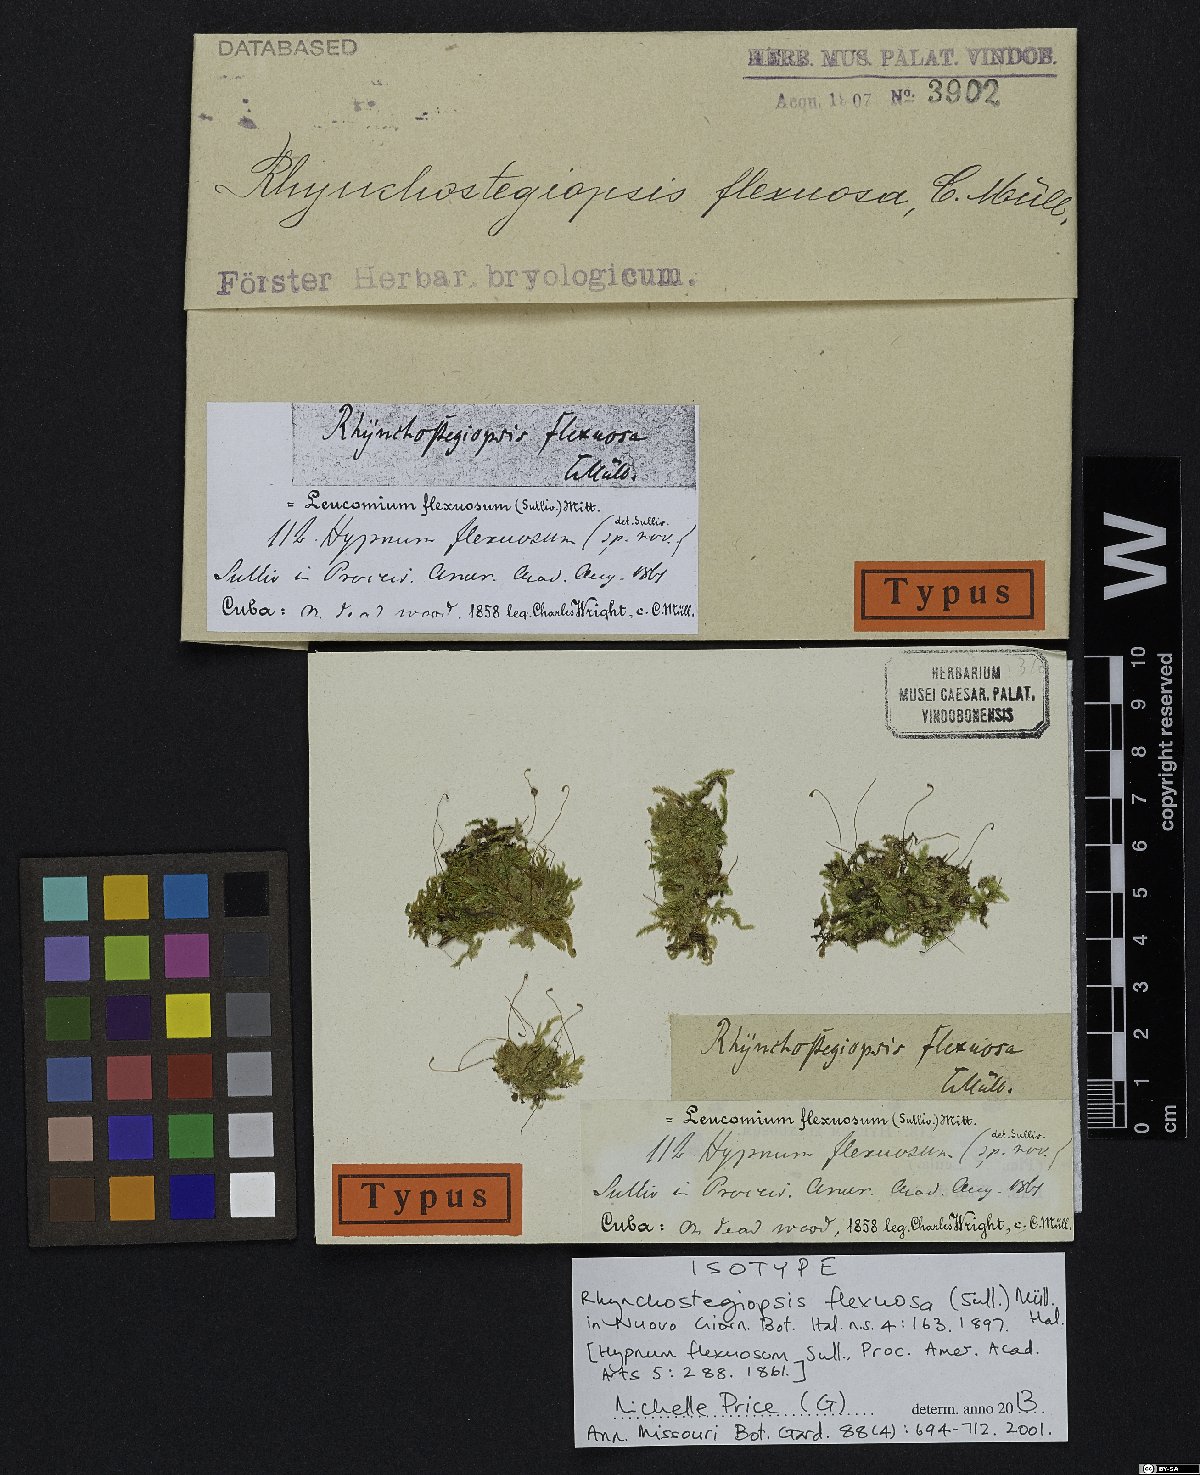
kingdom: Plantae
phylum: Bryophyta
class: Bryopsida
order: Hookeriales
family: Leucomiaceae
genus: Rhynchostegiopsis
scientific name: Rhynchostegiopsis flexuosa
